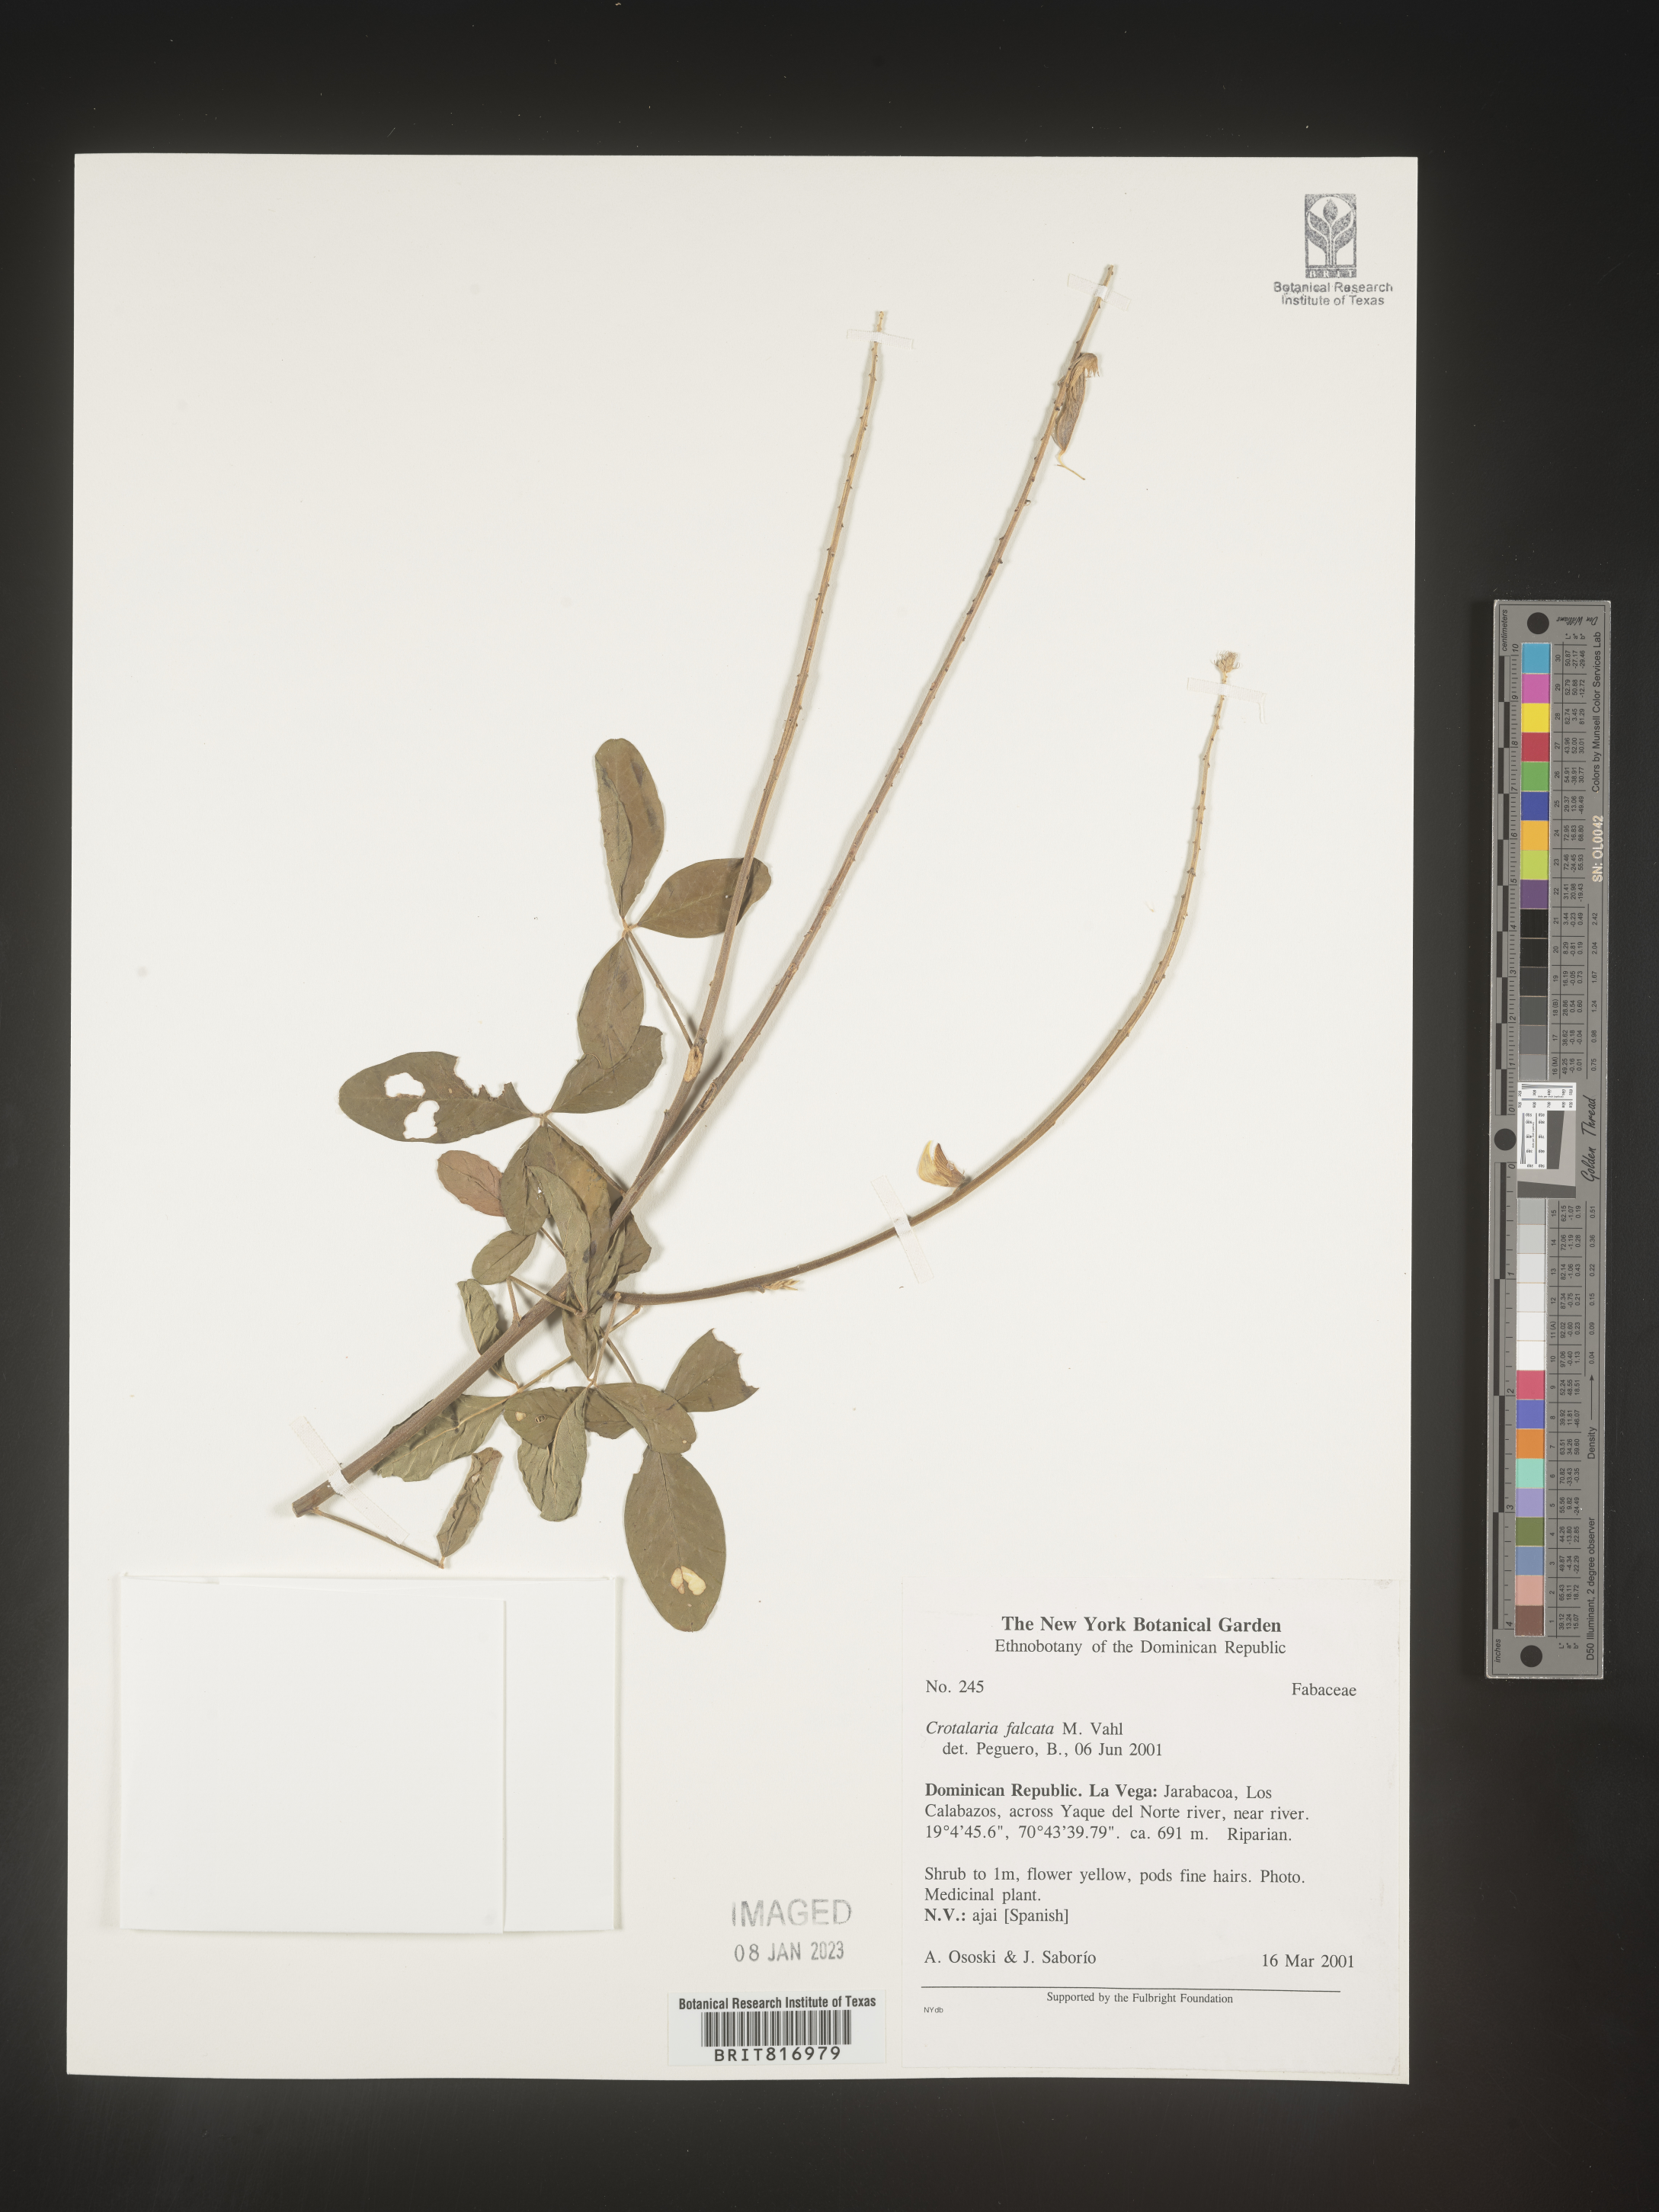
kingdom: Plantae
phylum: Tracheophyta
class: Magnoliopsida
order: Fabales
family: Fabaceae
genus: Crotalaria
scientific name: Crotalaria
